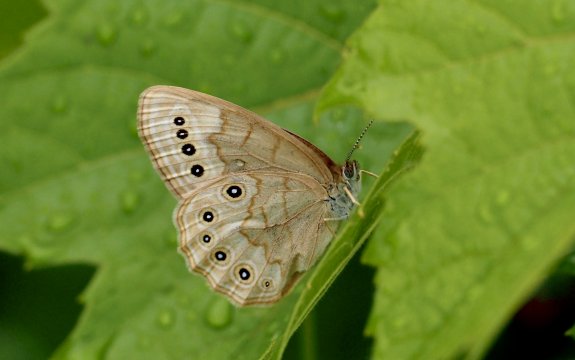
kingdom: Animalia
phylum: Arthropoda
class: Insecta
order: Lepidoptera
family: Nymphalidae
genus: Lethe
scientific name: Lethe eurydice
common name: Eyed Brown
